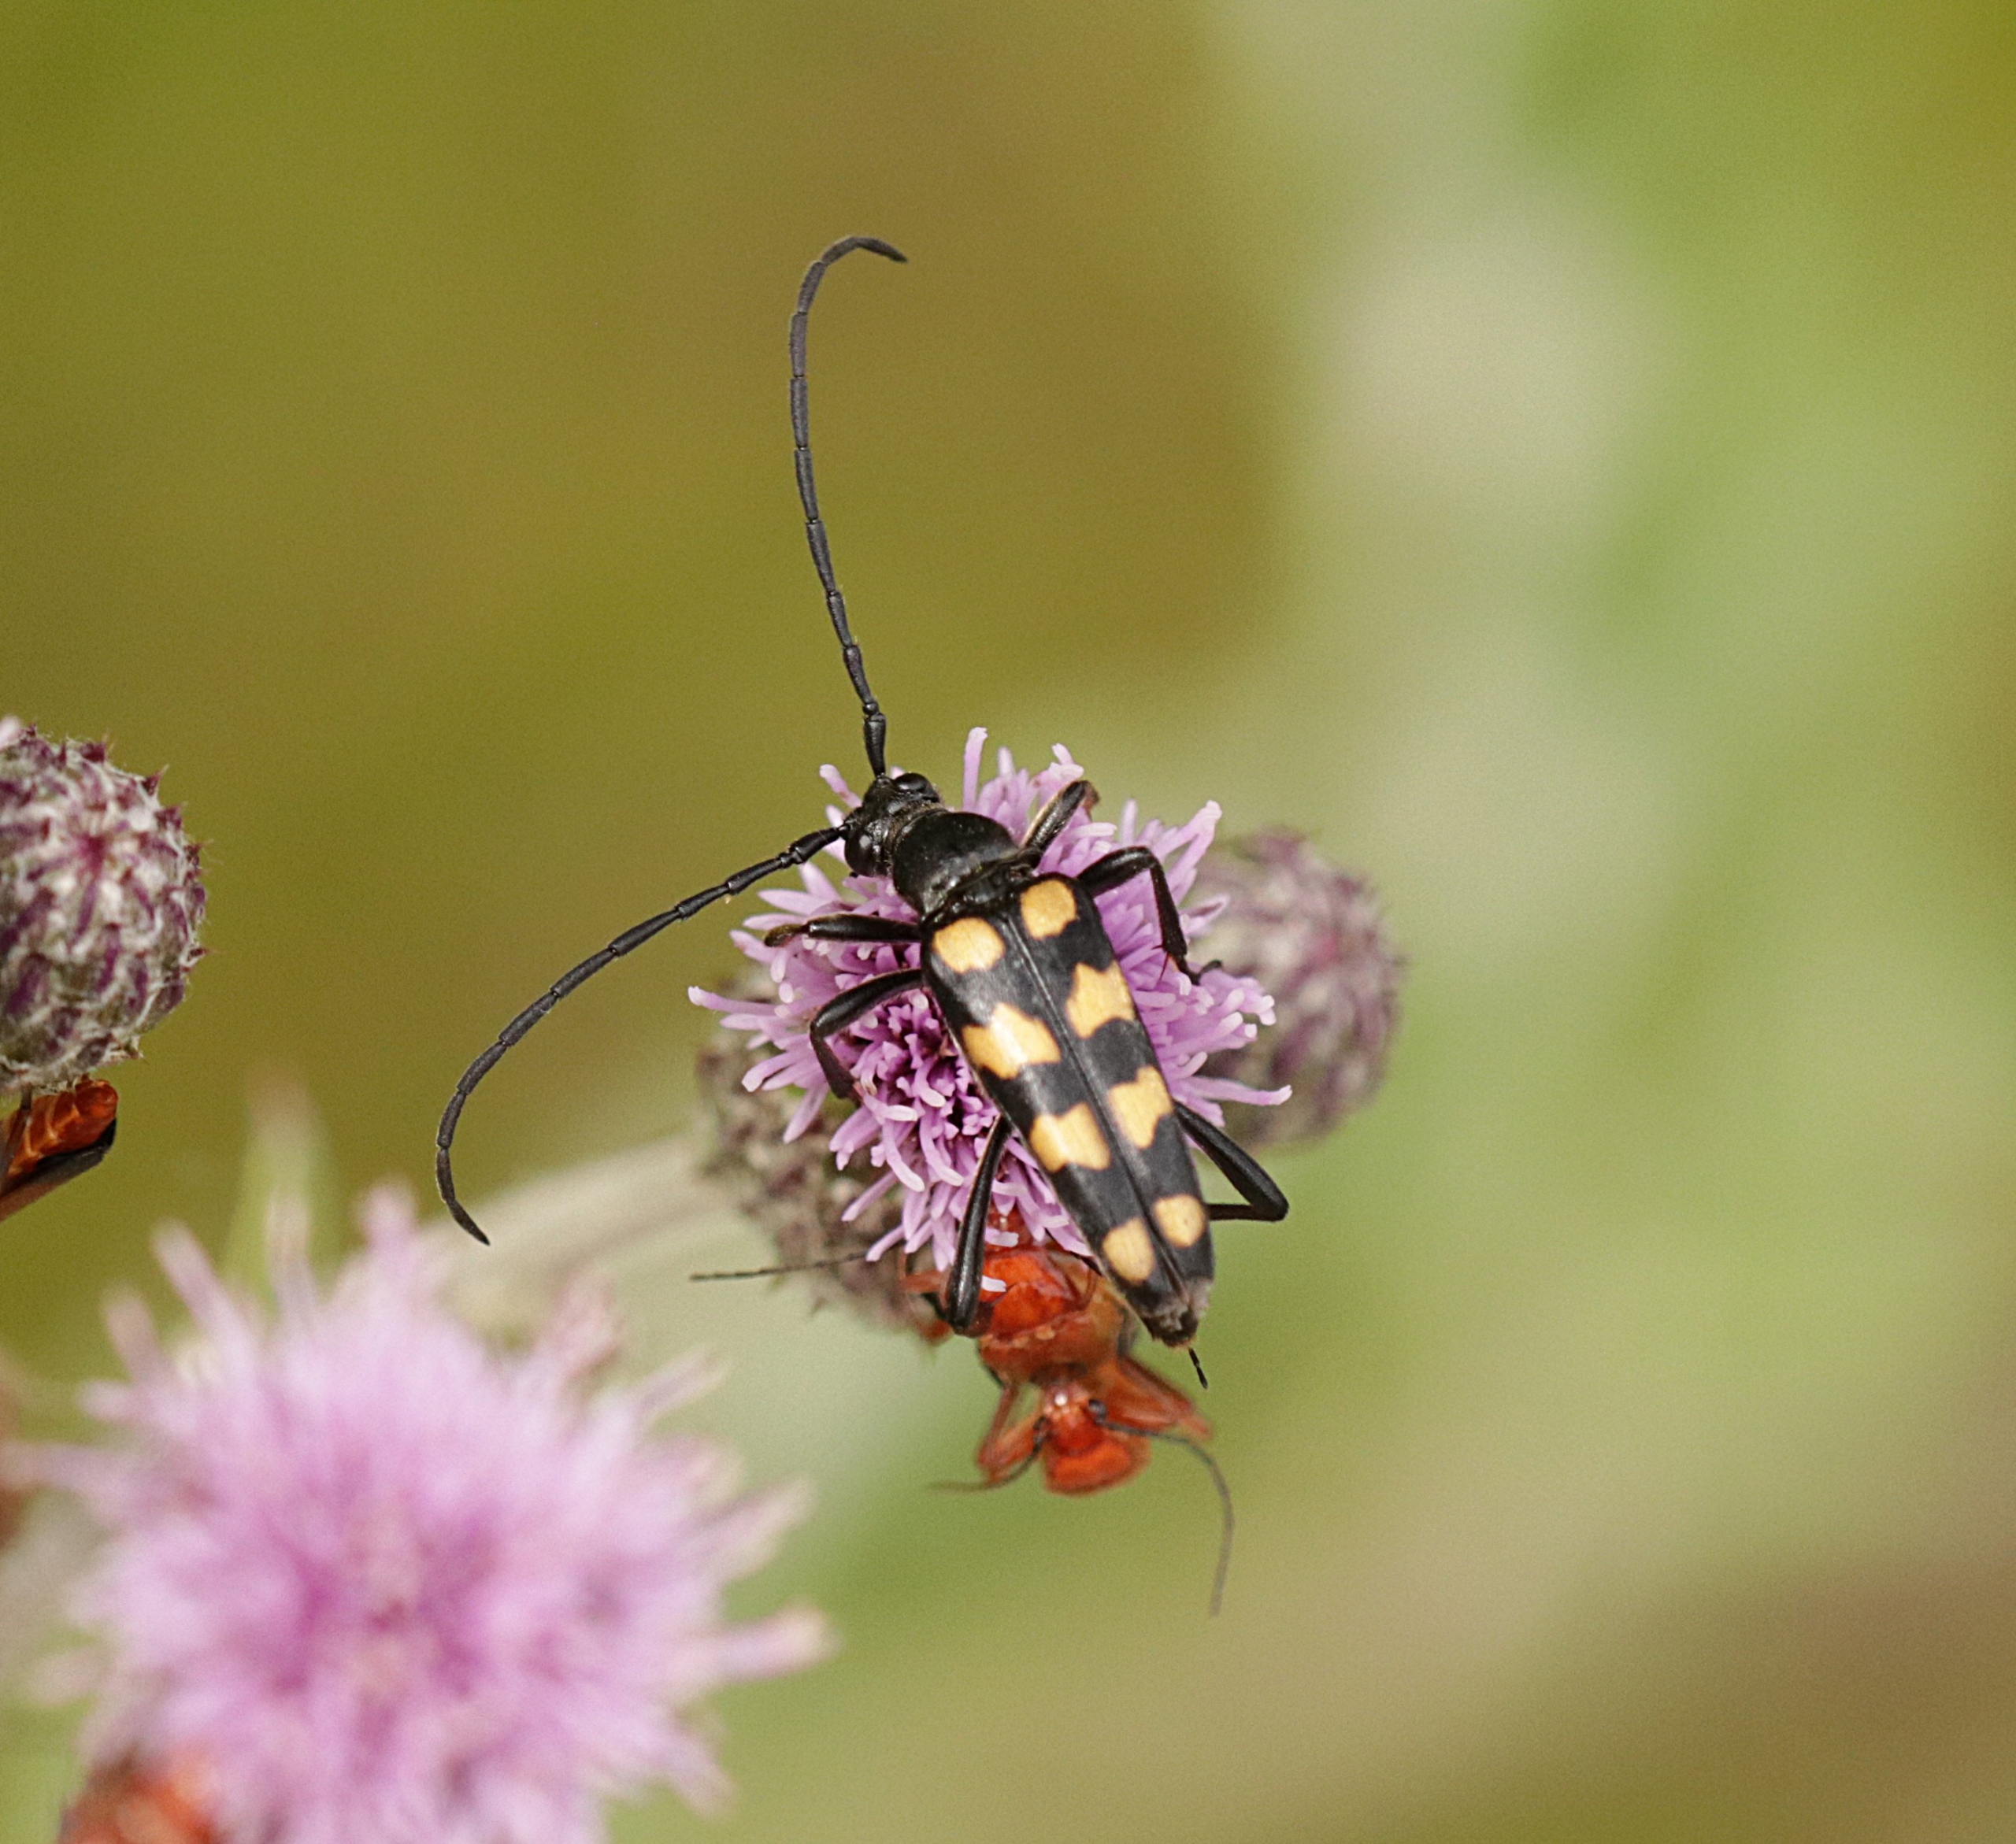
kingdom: Animalia
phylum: Arthropoda
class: Insecta
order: Coleoptera
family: Cerambycidae
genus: Leptura
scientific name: Leptura quadrifasciata
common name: Firebåndet blomsterbuk
